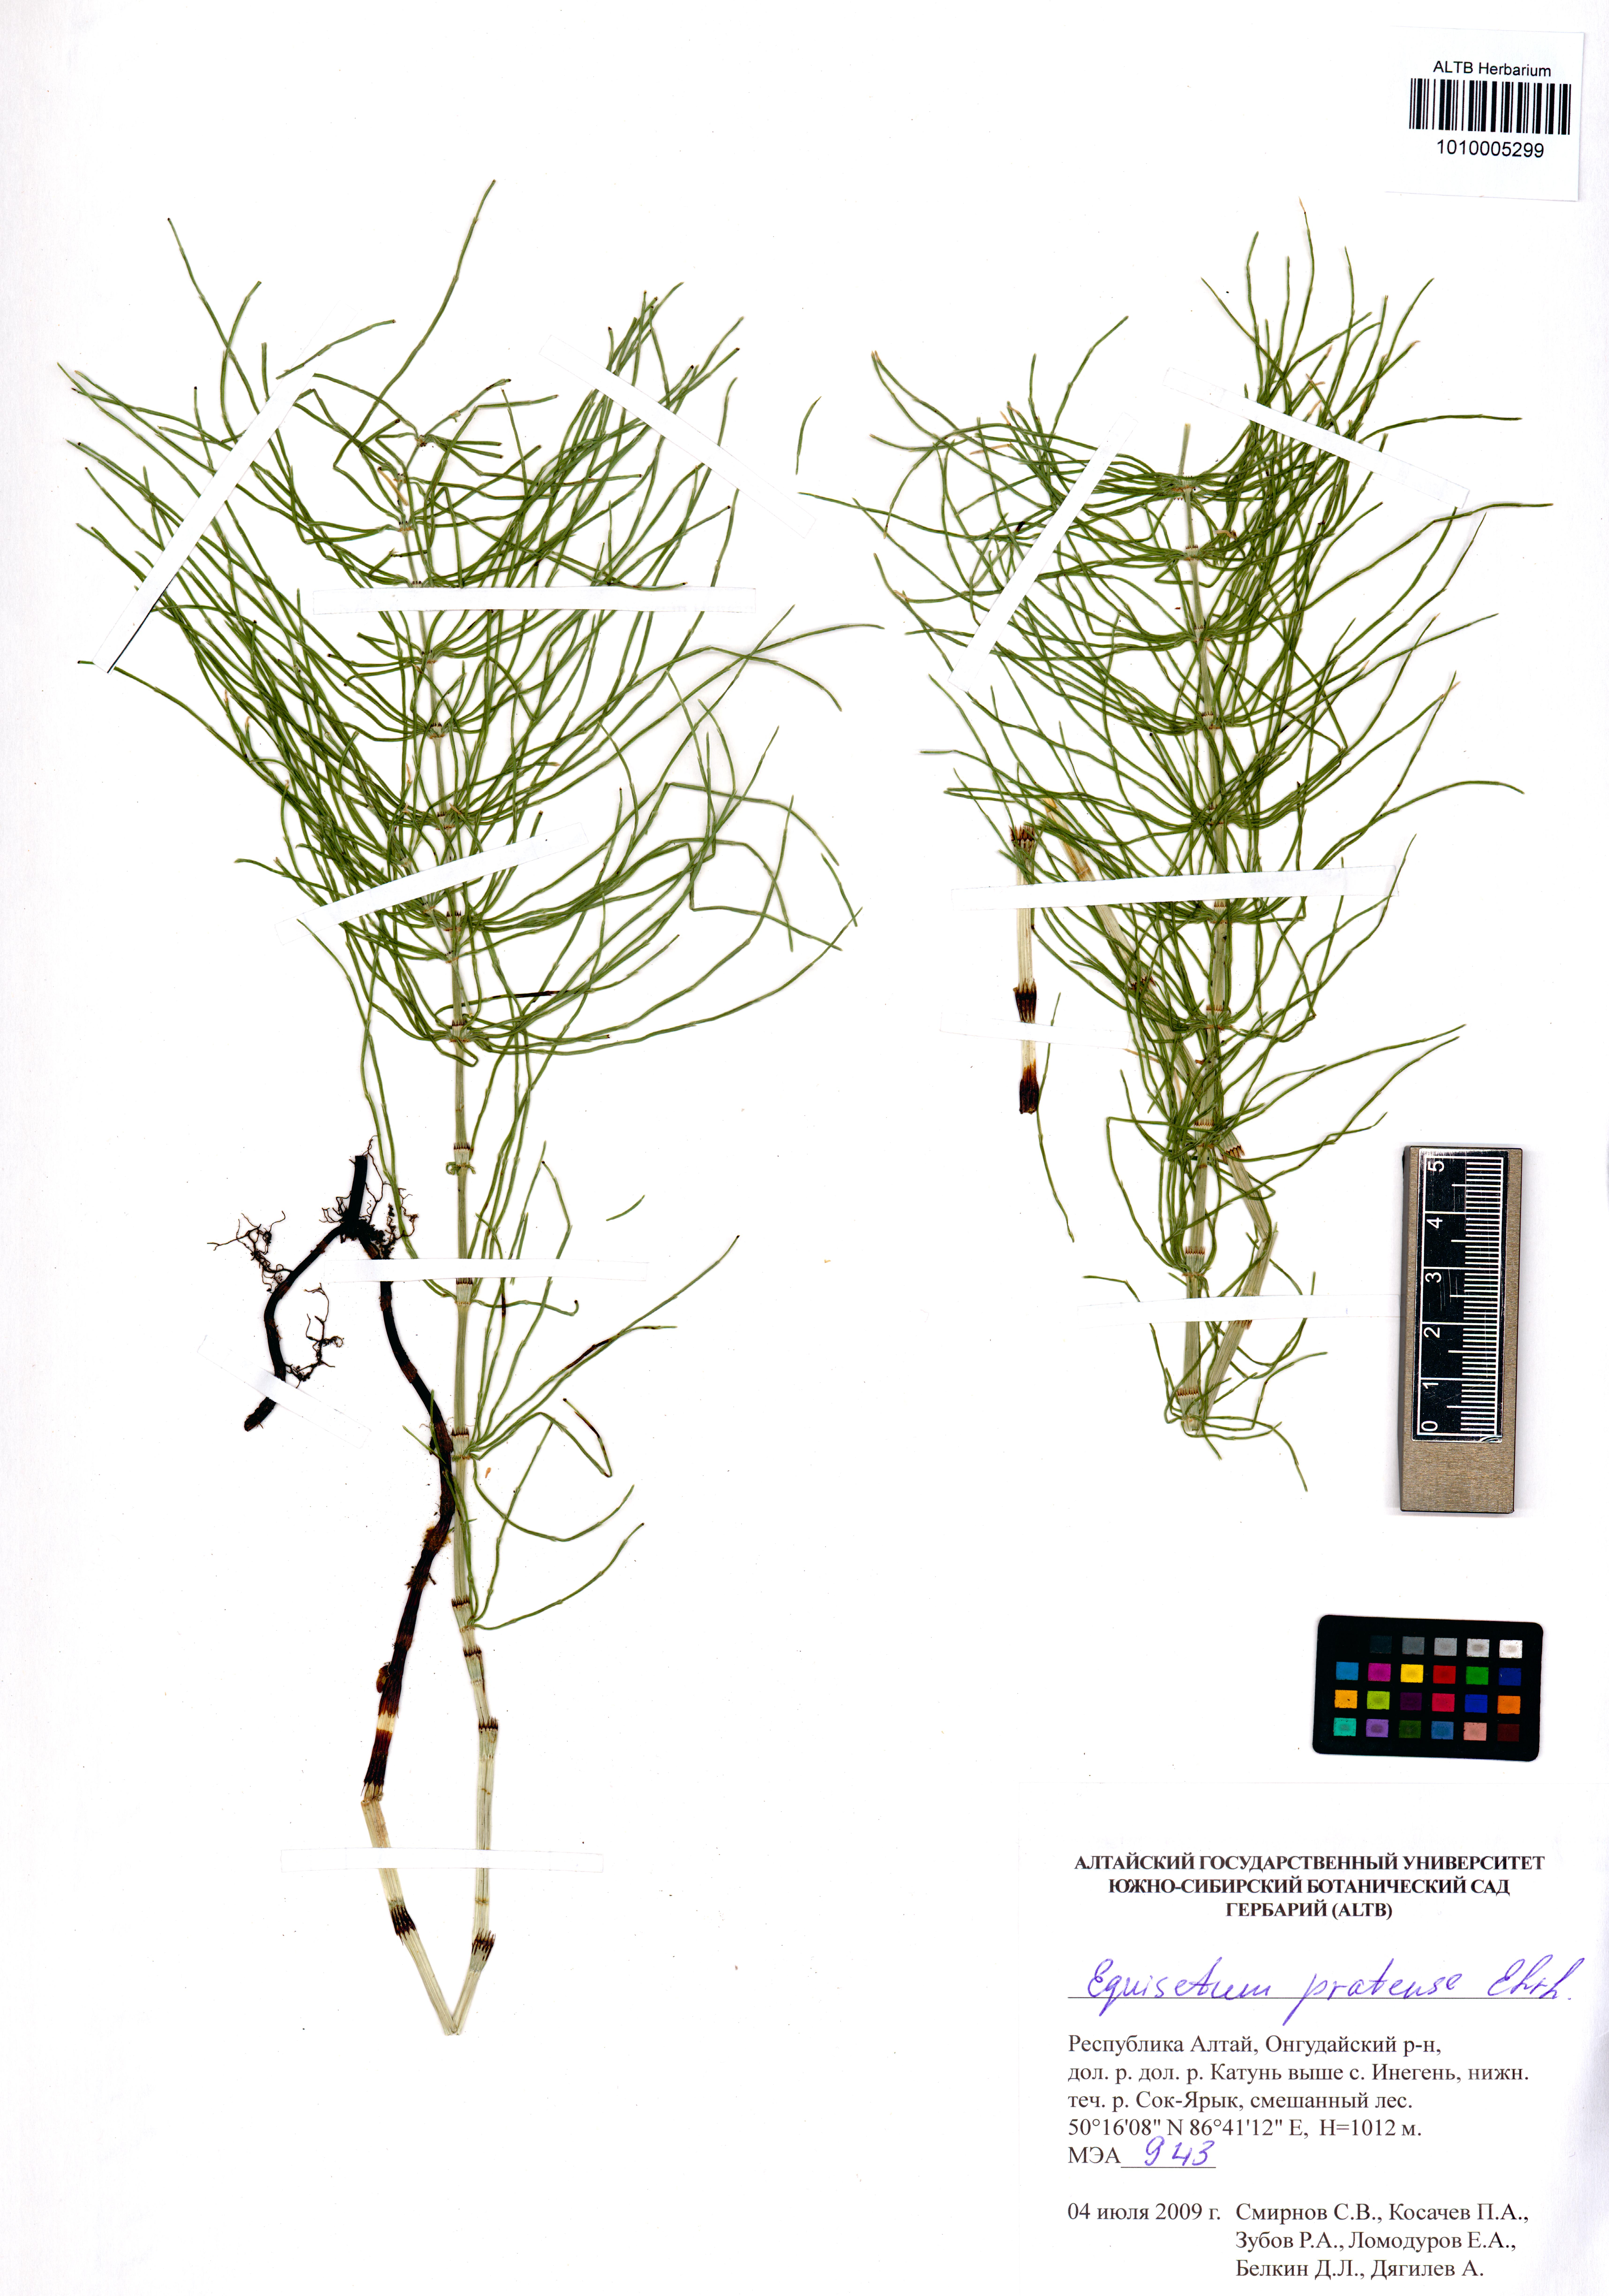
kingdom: Plantae
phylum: Tracheophyta
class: Polypodiopsida
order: Equisetales
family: Equisetaceae
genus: Equisetum
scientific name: Equisetum pratense
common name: Meadow horsetail
